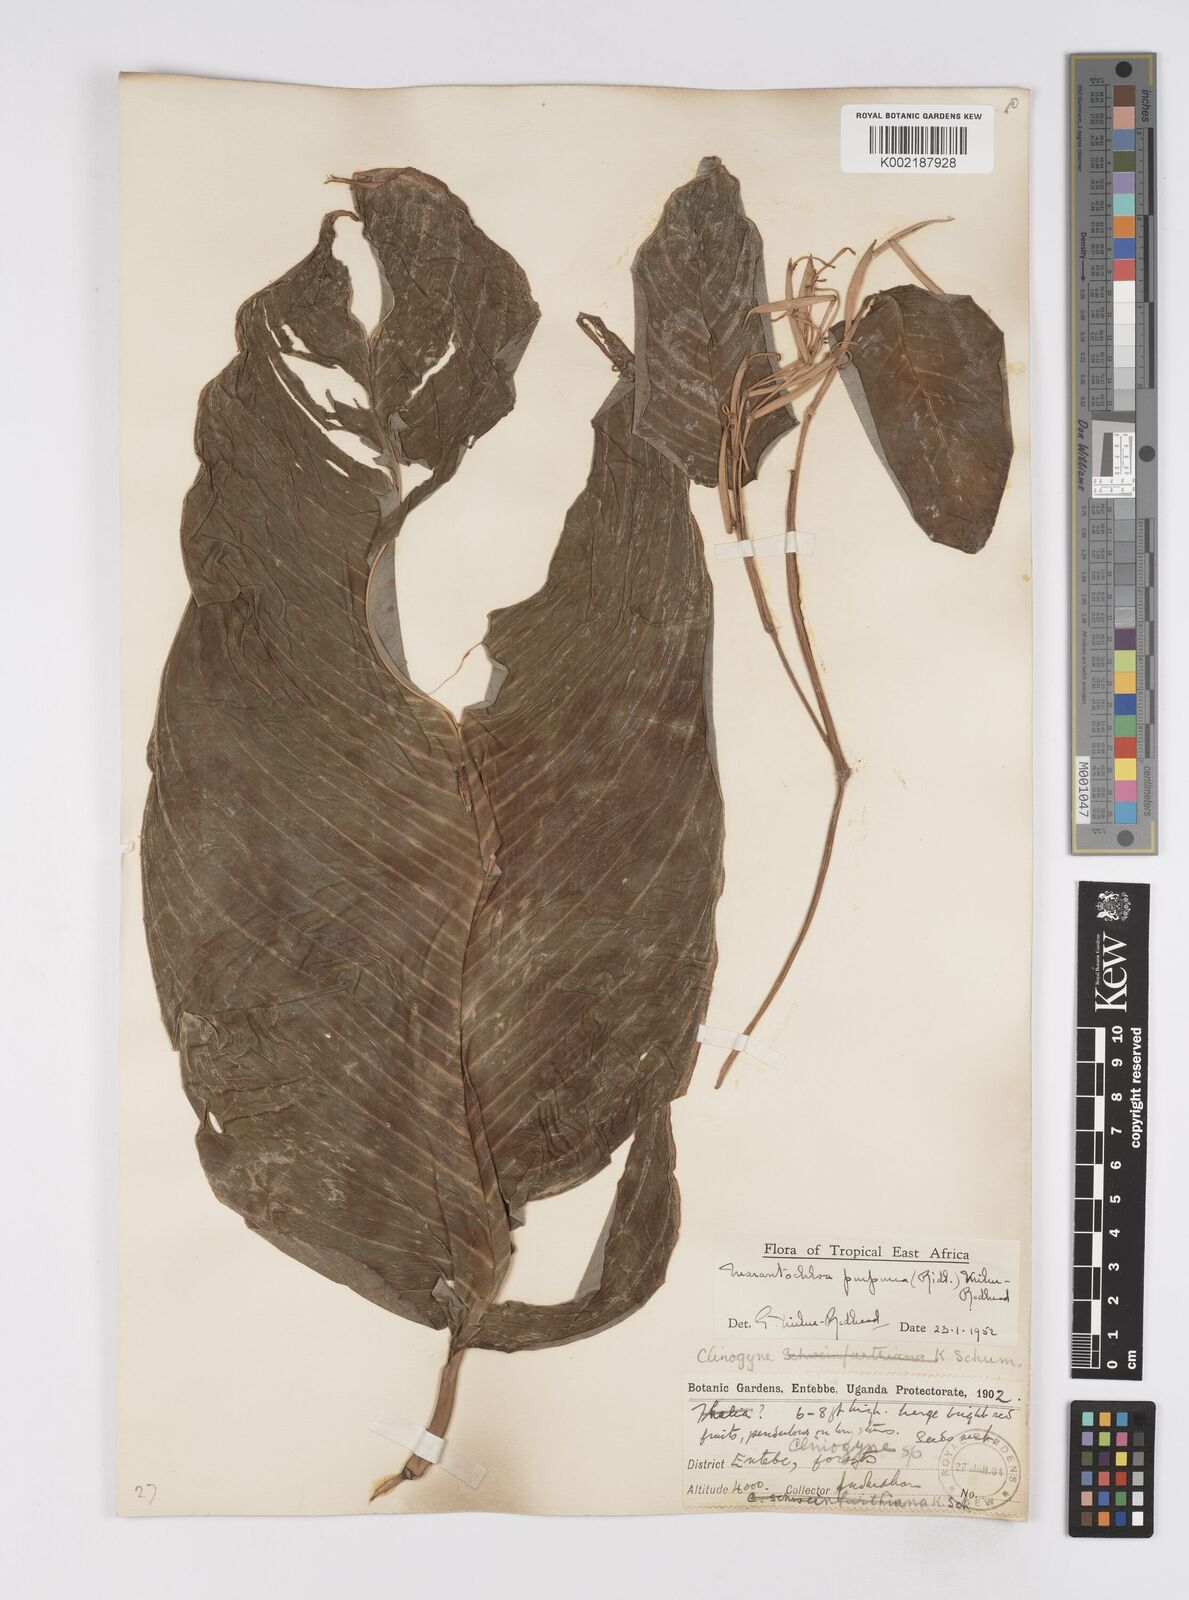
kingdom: Plantae
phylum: Tracheophyta
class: Liliopsida
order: Zingiberales
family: Marantaceae
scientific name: Marantaceae
